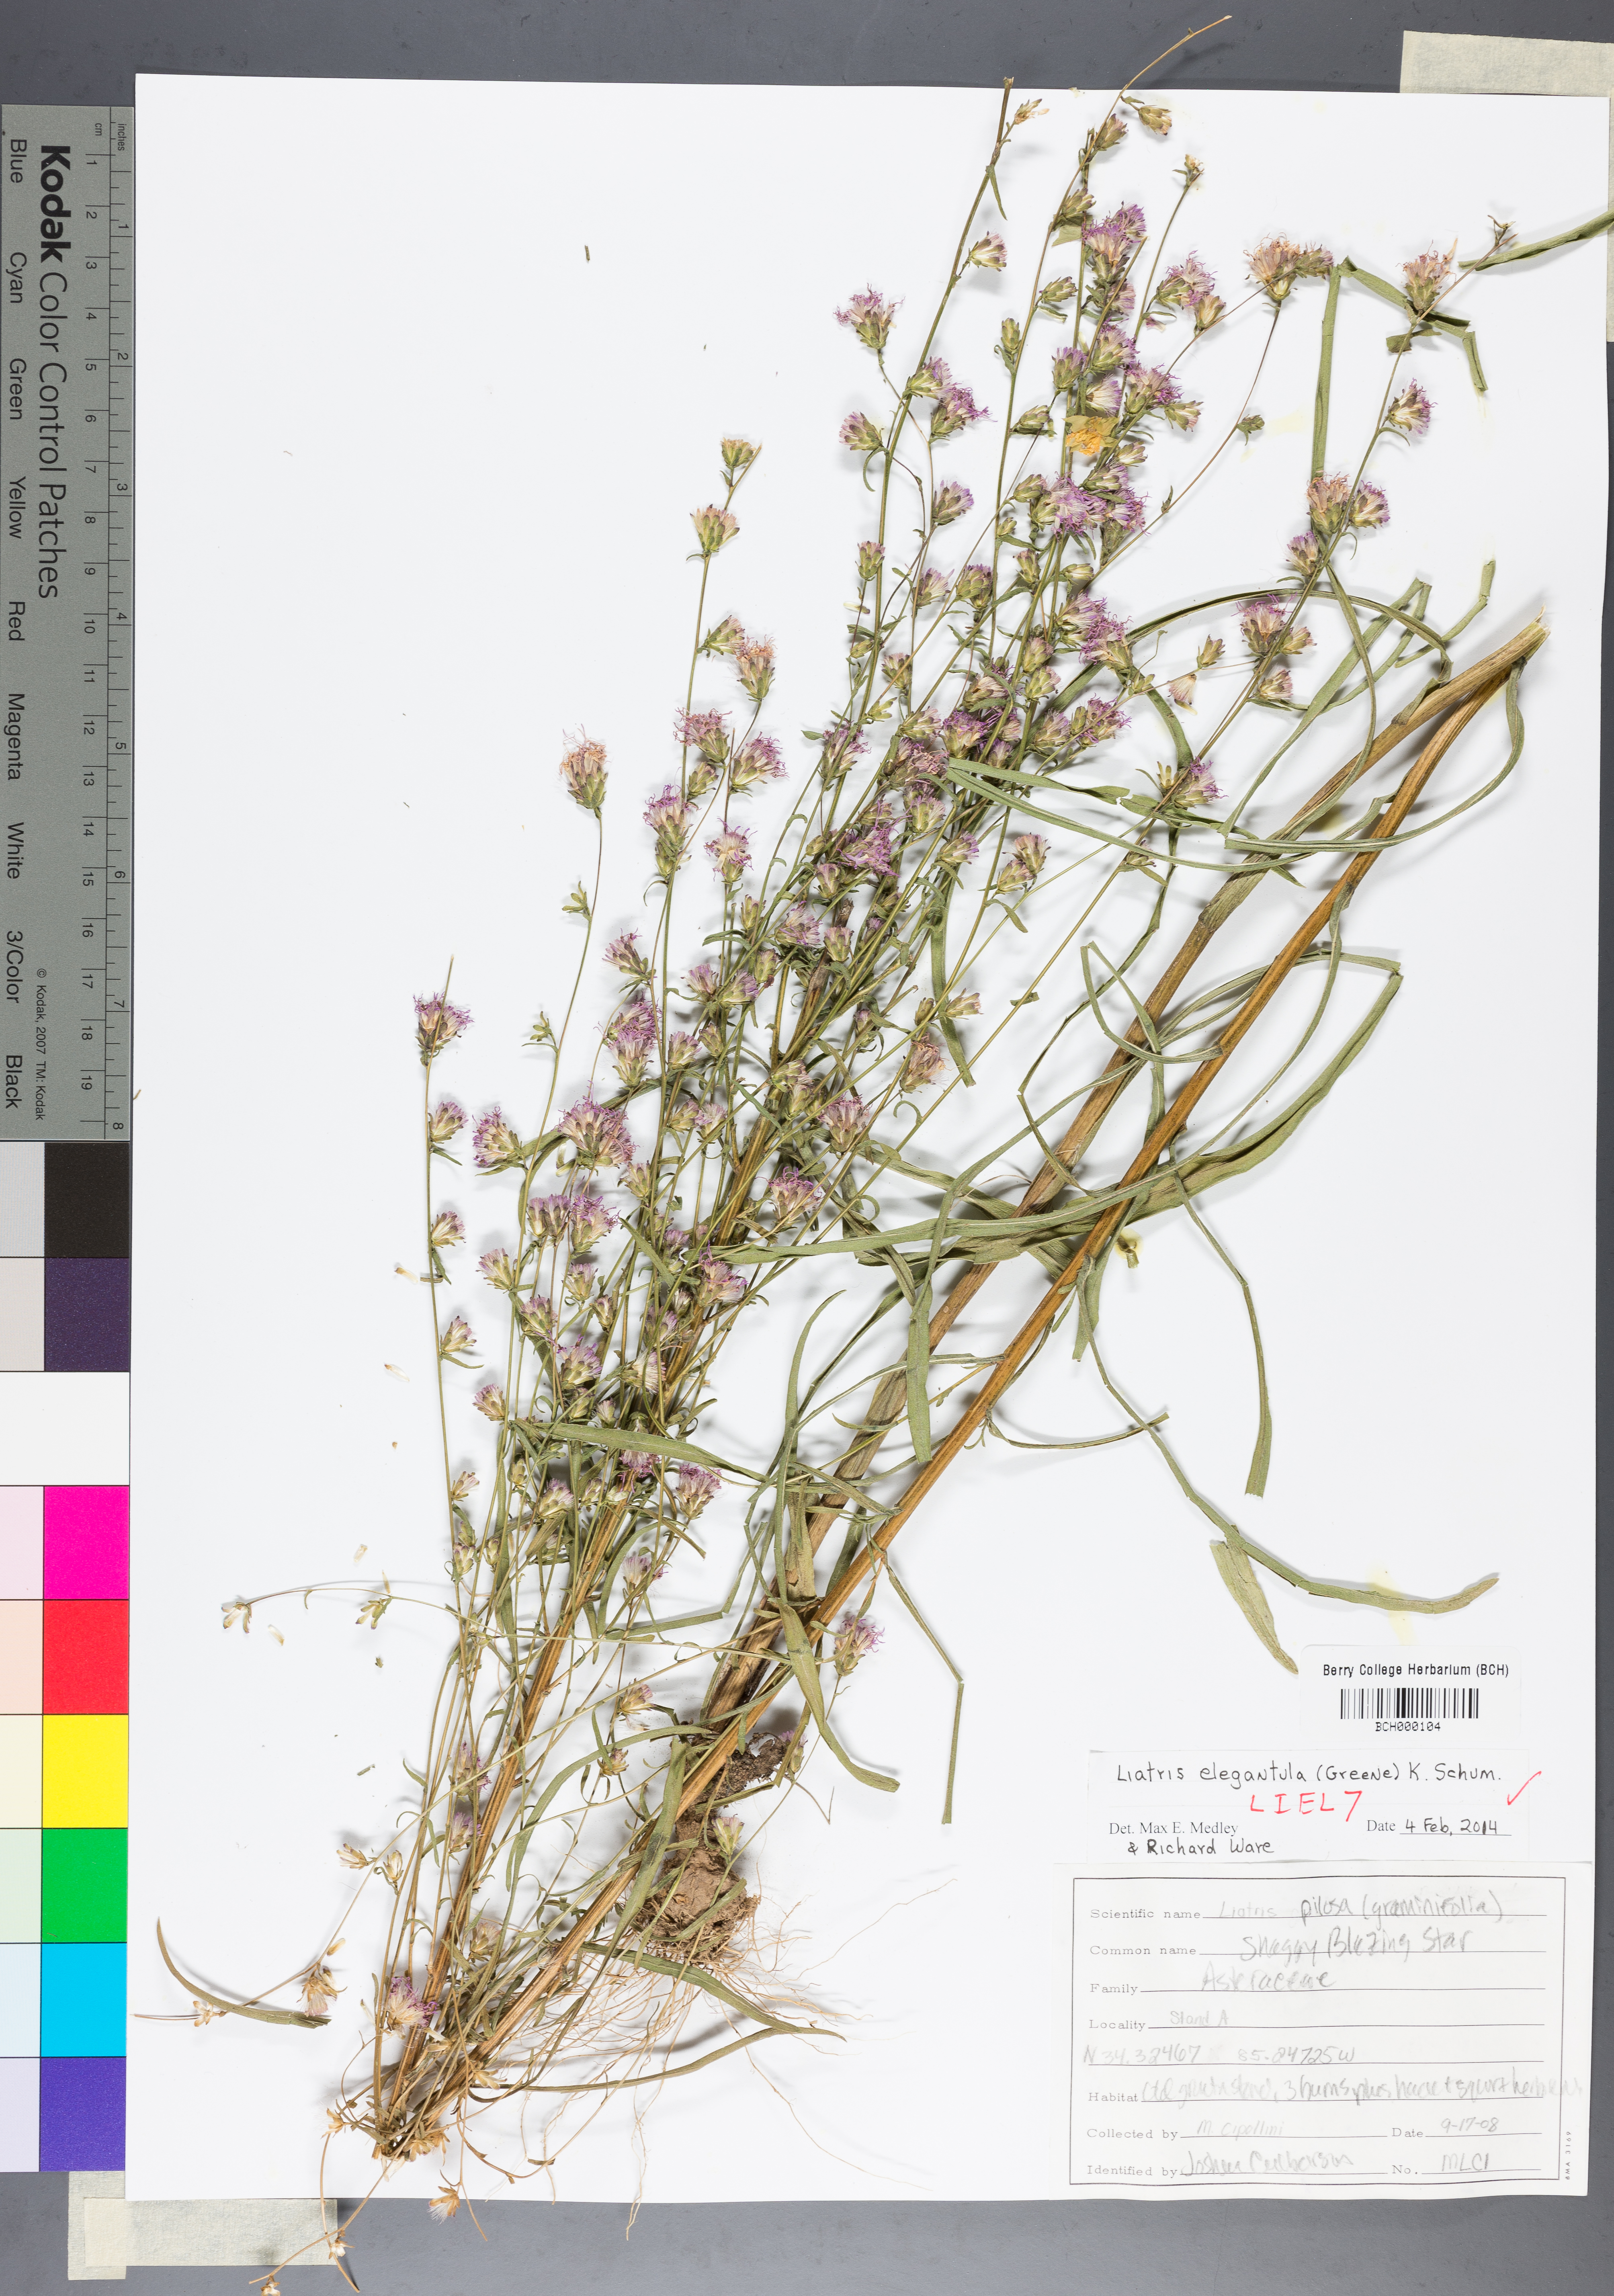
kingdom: Plantae
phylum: Tracheophyta
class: Magnoliopsida
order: Asterales
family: Asteraceae
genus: Liatris
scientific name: Liatris elegantula
